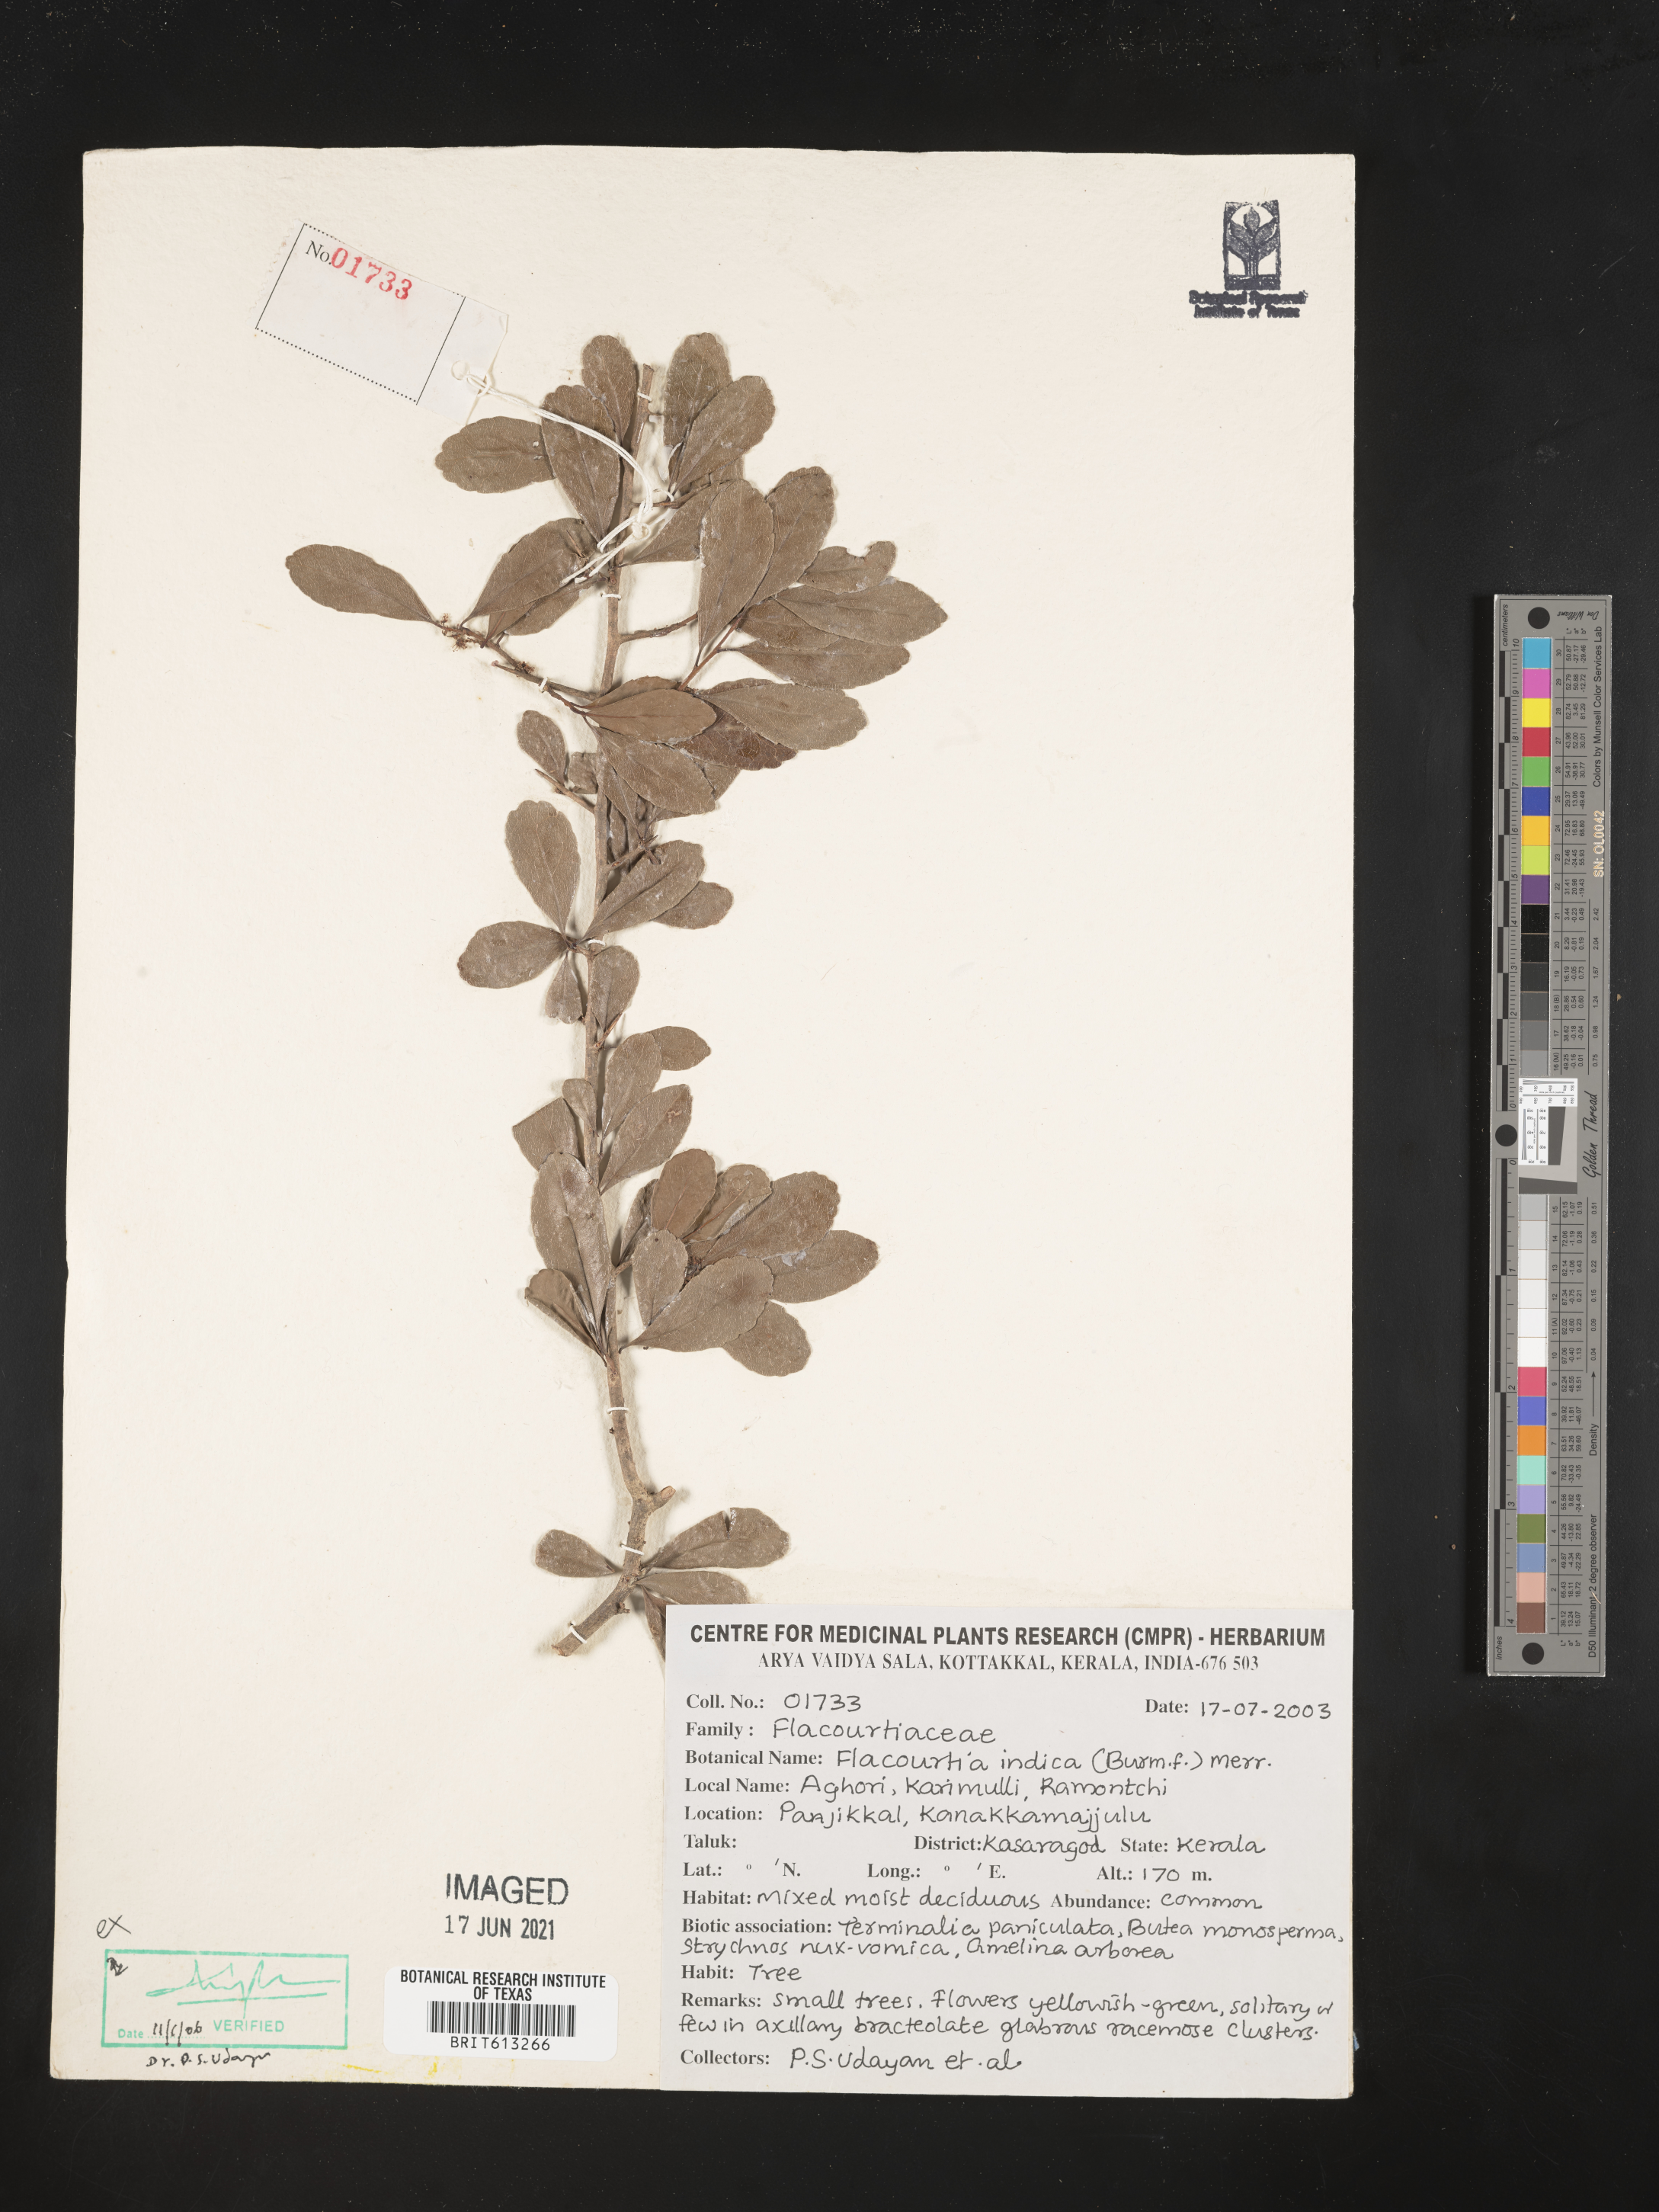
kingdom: Plantae
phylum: Tracheophyta
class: Magnoliopsida
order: Malpighiales
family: Salicaceae
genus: Flacourtia
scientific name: Flacourtia indica
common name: Governor's plum
